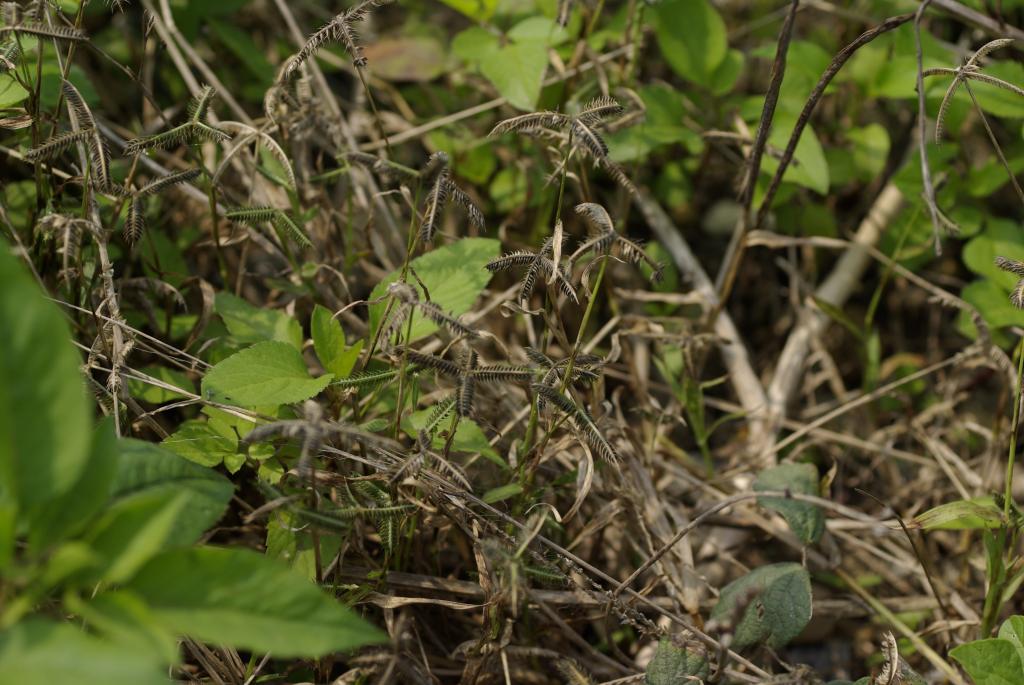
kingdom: Plantae
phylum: Tracheophyta
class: Liliopsida
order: Poales
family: Poaceae
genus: Dactyloctenium
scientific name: Dactyloctenium aegyptium
